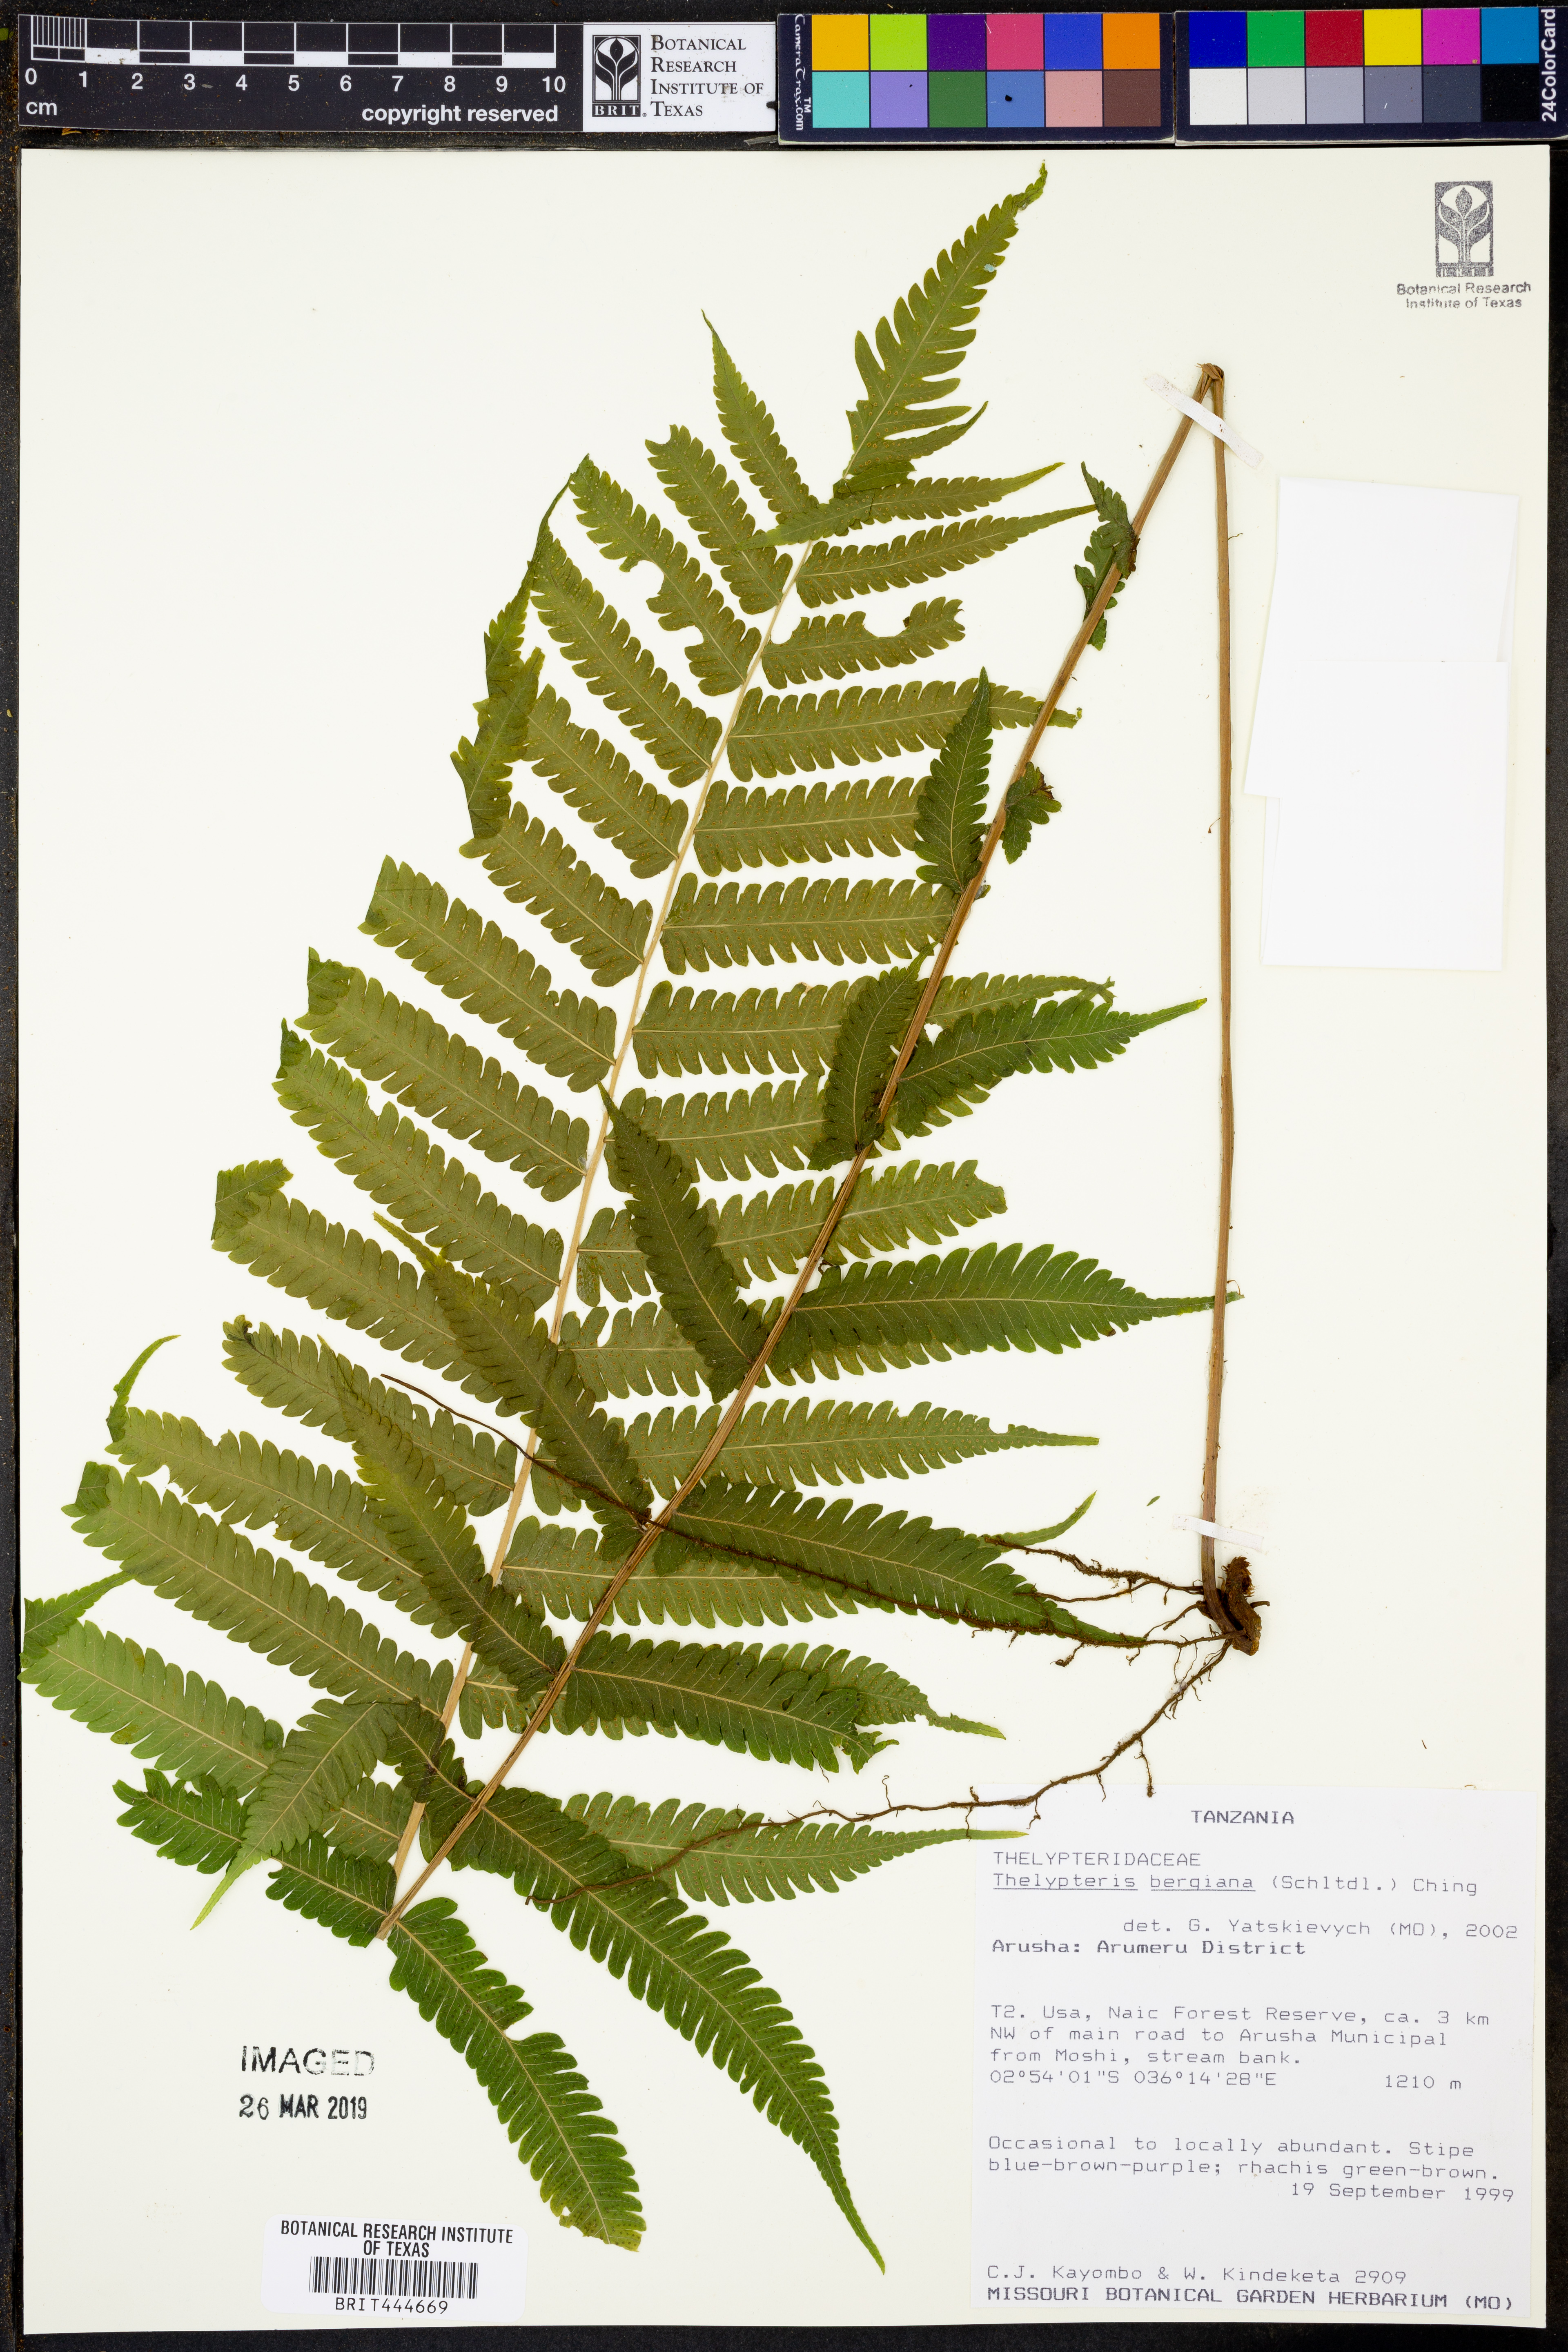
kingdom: Plantae
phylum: Tracheophyta
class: Polypodiopsida
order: Polypodiales
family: Thelypteridaceae
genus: Amauropelta
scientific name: Amauropelta bergiana
